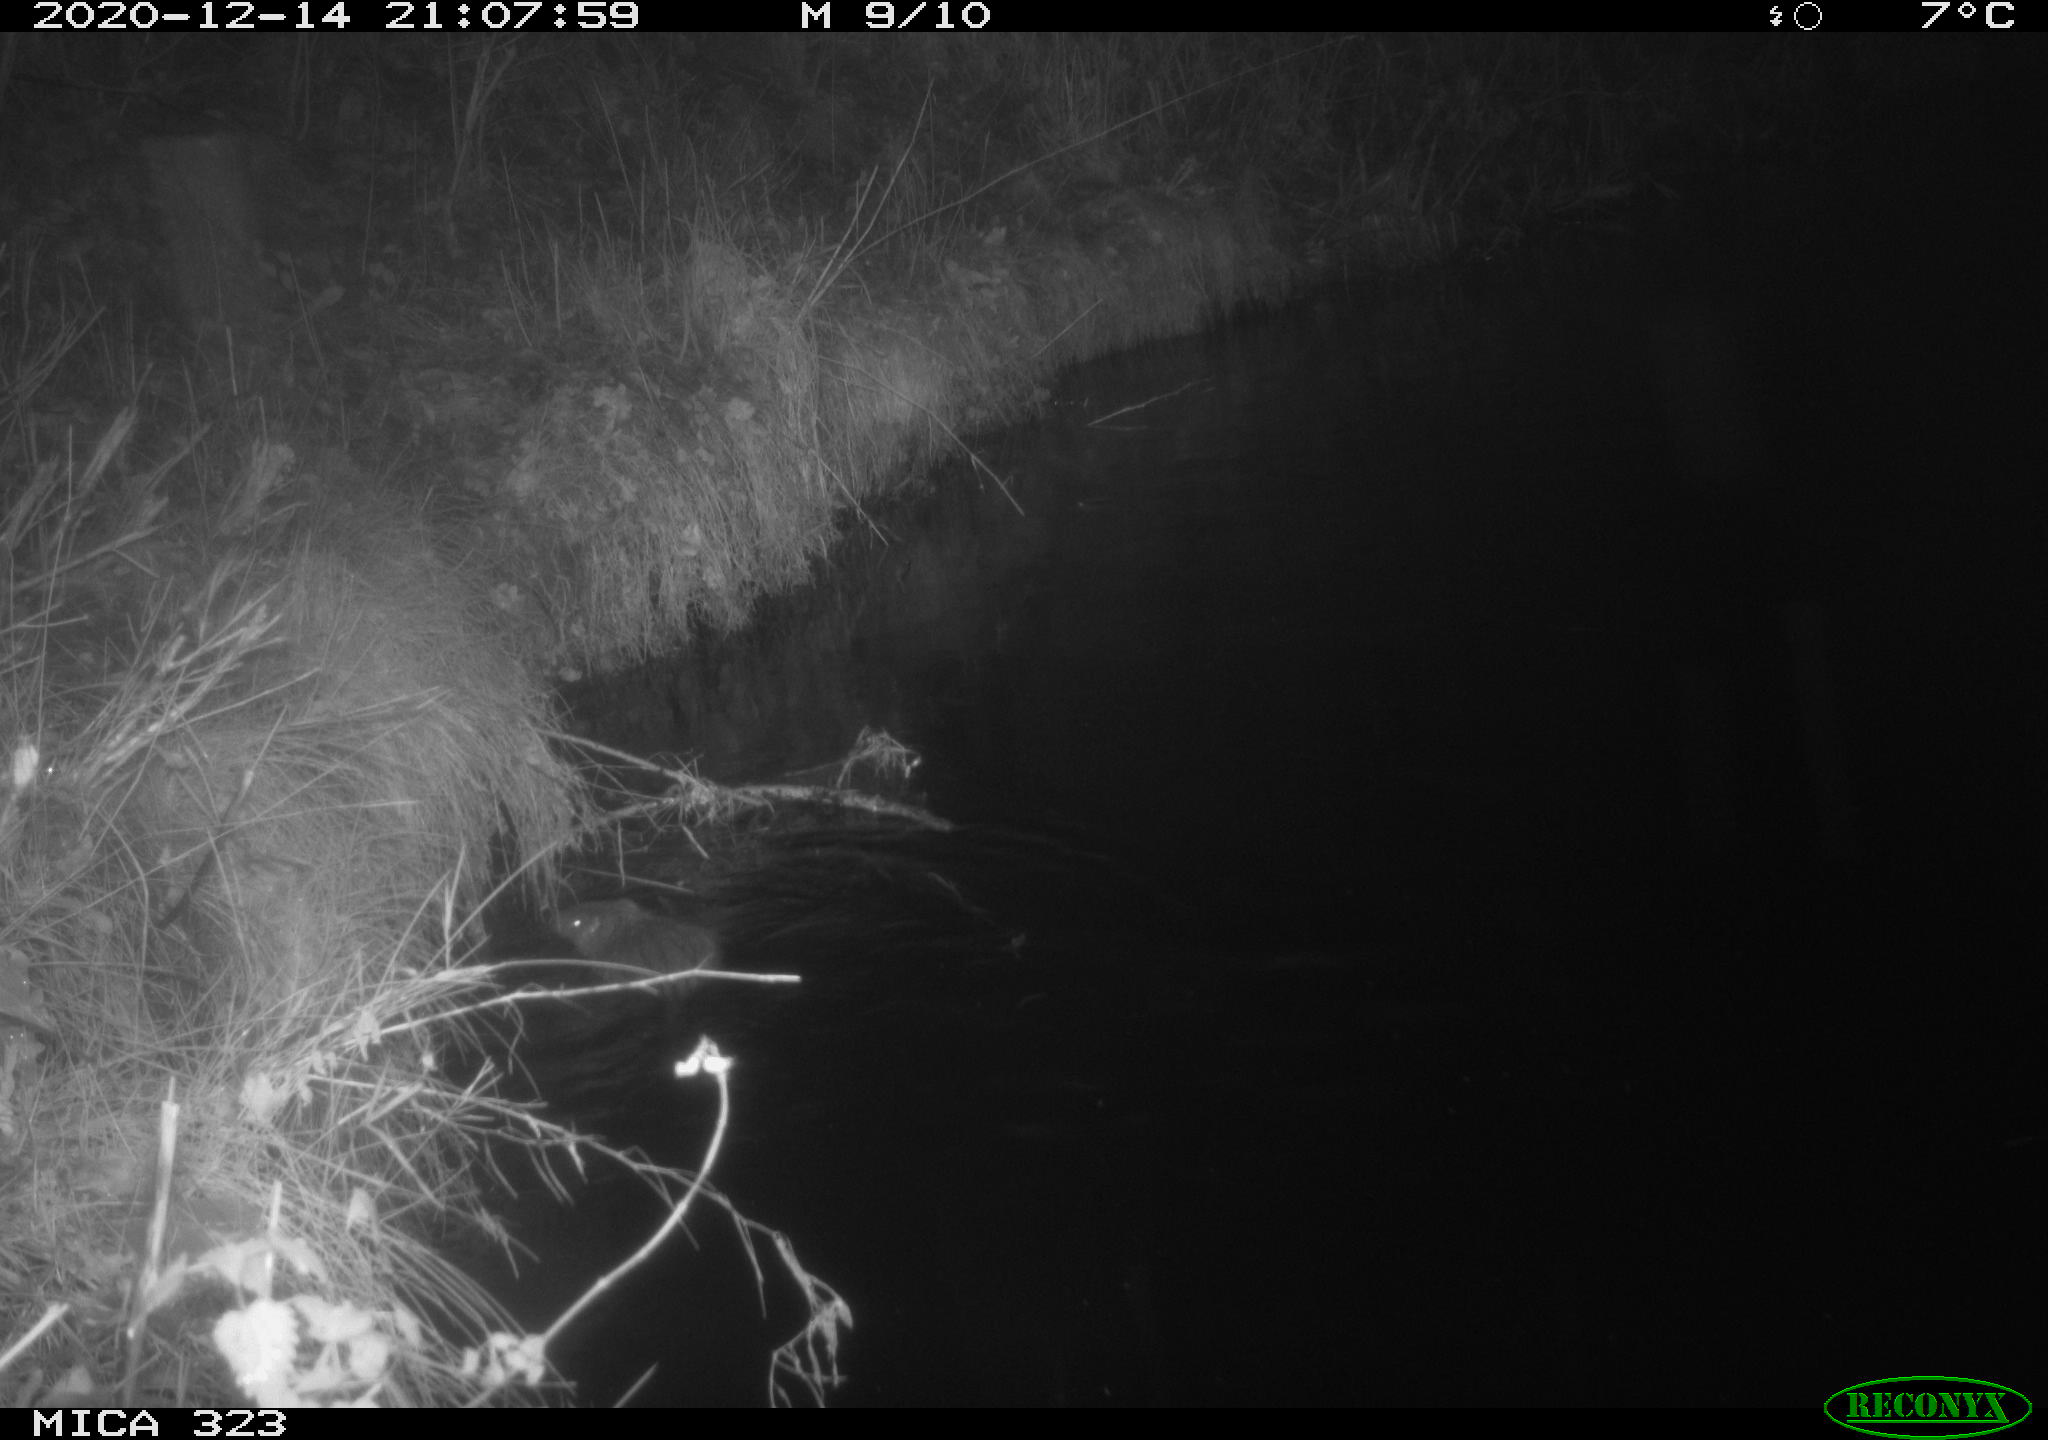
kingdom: Animalia
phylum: Chordata
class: Mammalia
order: Rodentia
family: Myocastoridae
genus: Myocastor
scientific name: Myocastor coypus
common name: Coypu
